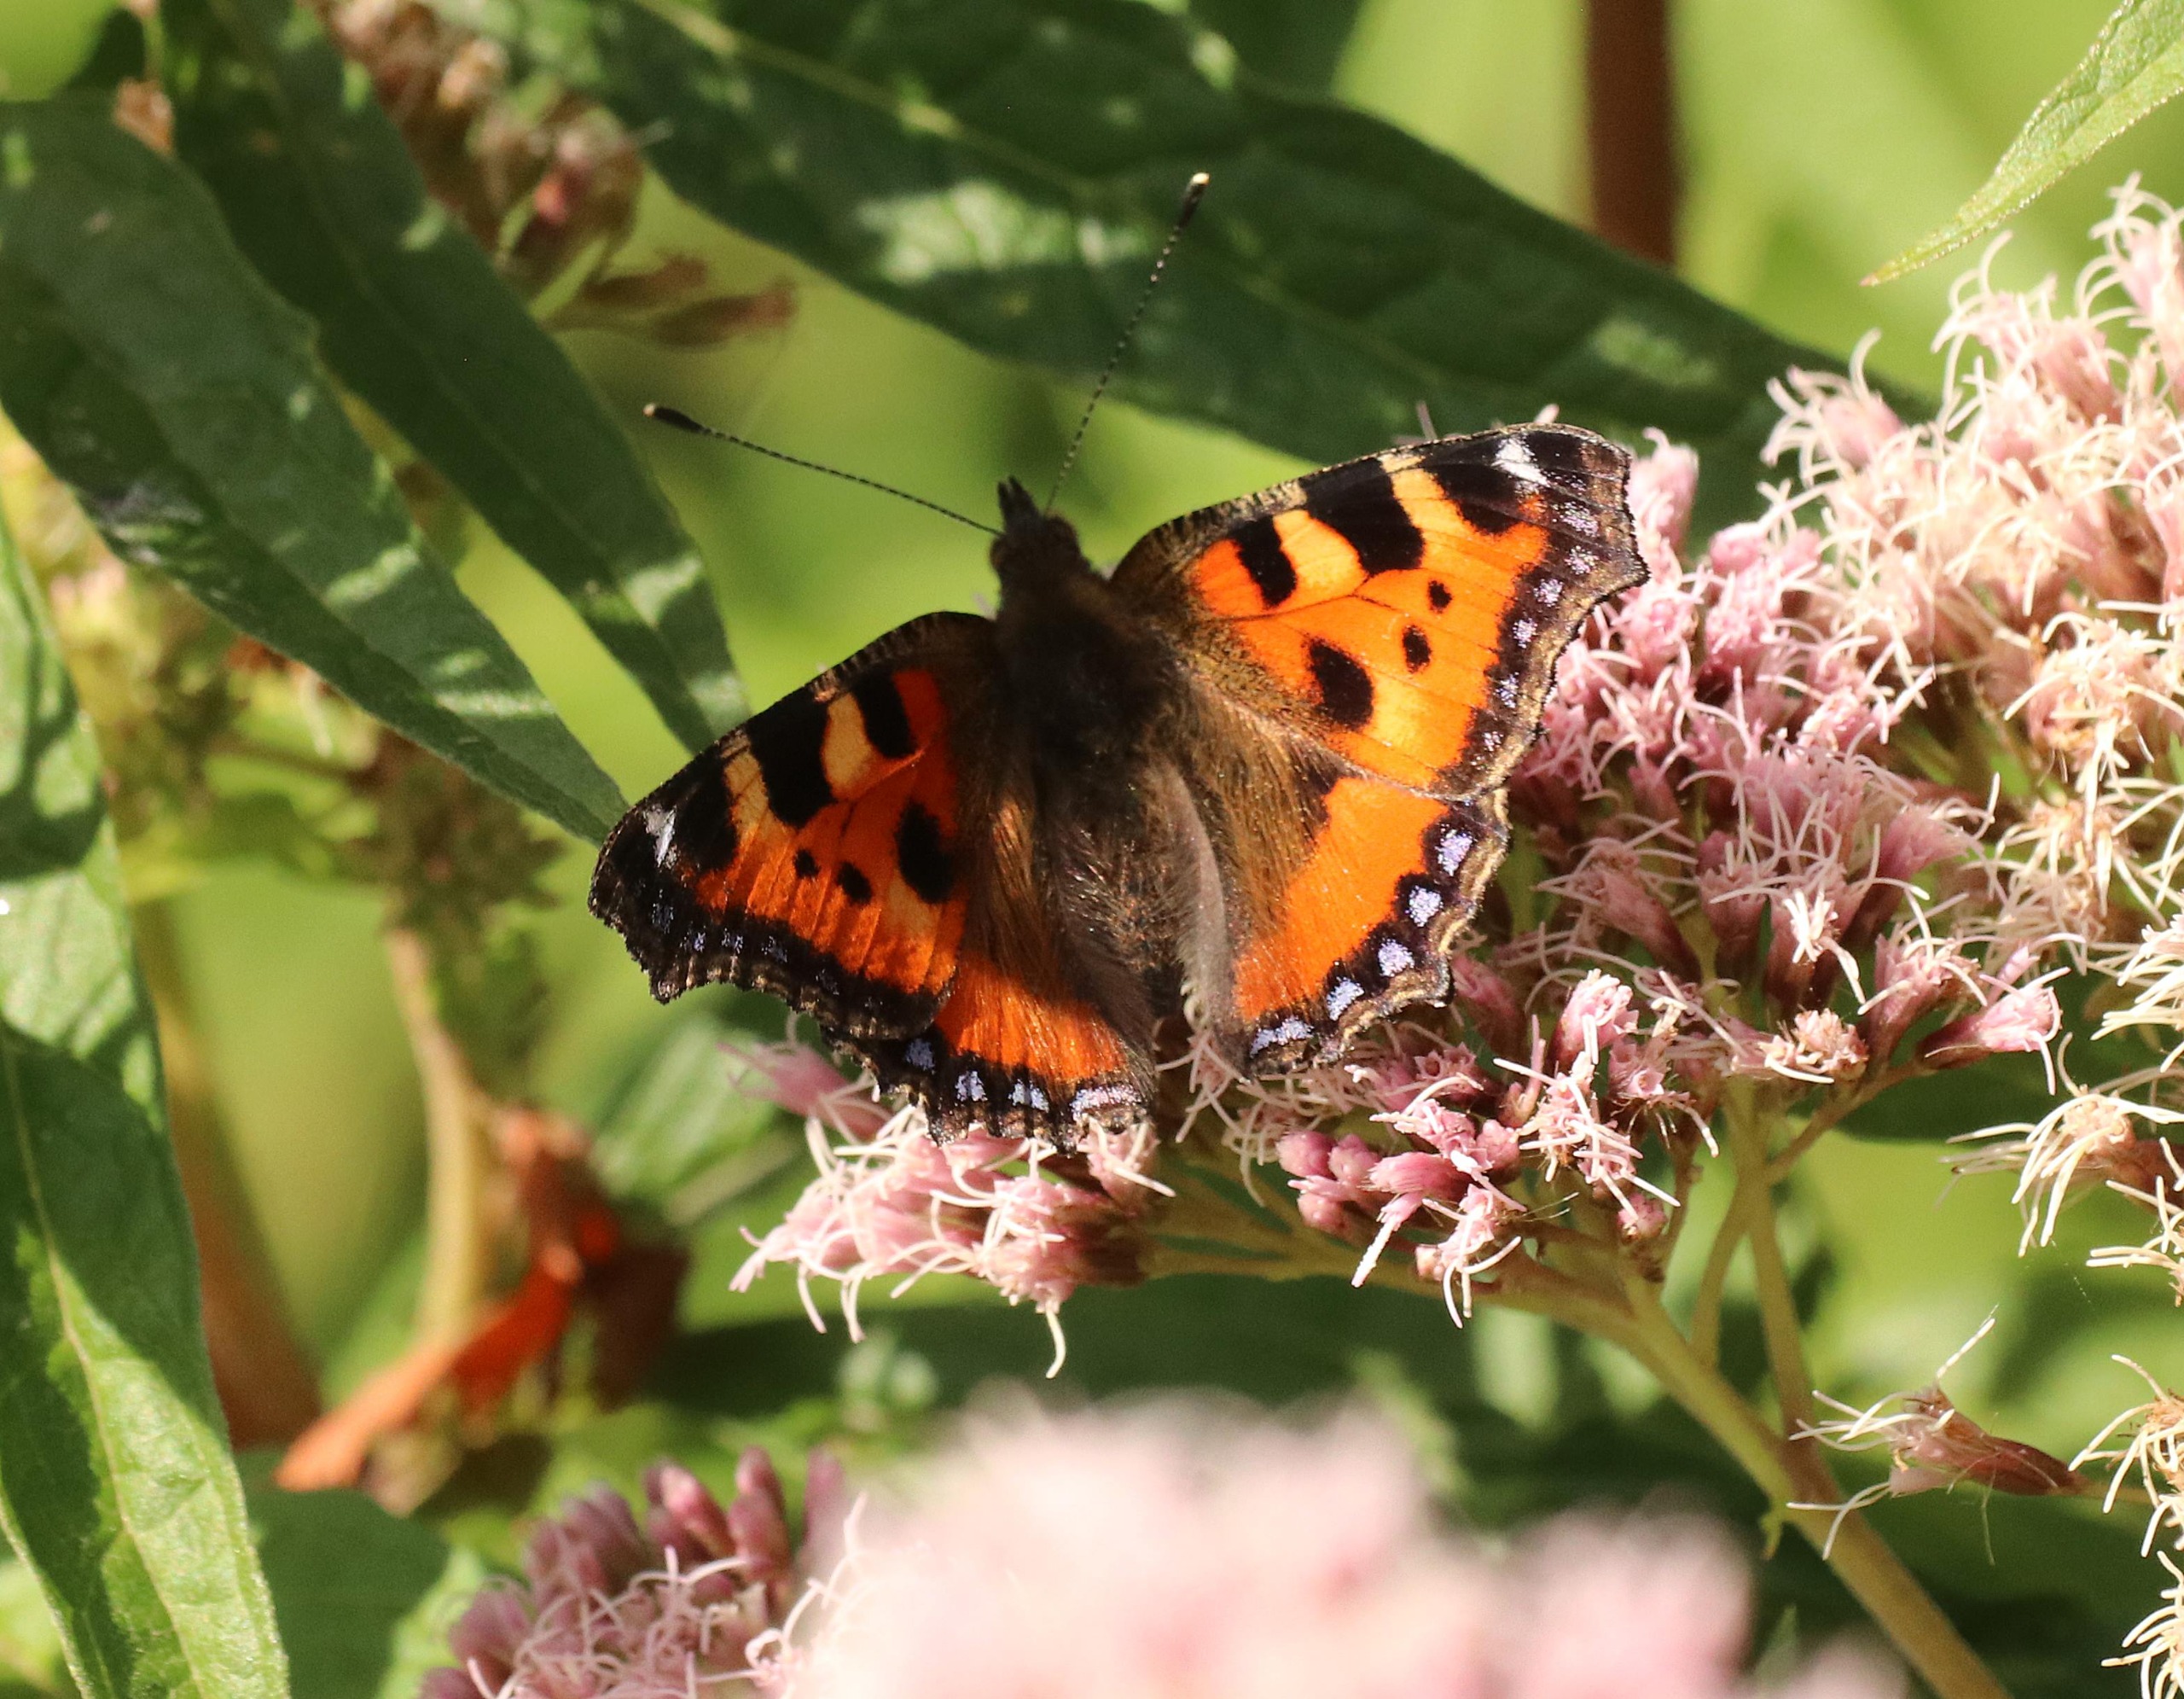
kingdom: Animalia
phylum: Arthropoda
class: Insecta
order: Lepidoptera
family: Nymphalidae
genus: Aglais
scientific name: Aglais urticae
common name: Nældens takvinge
